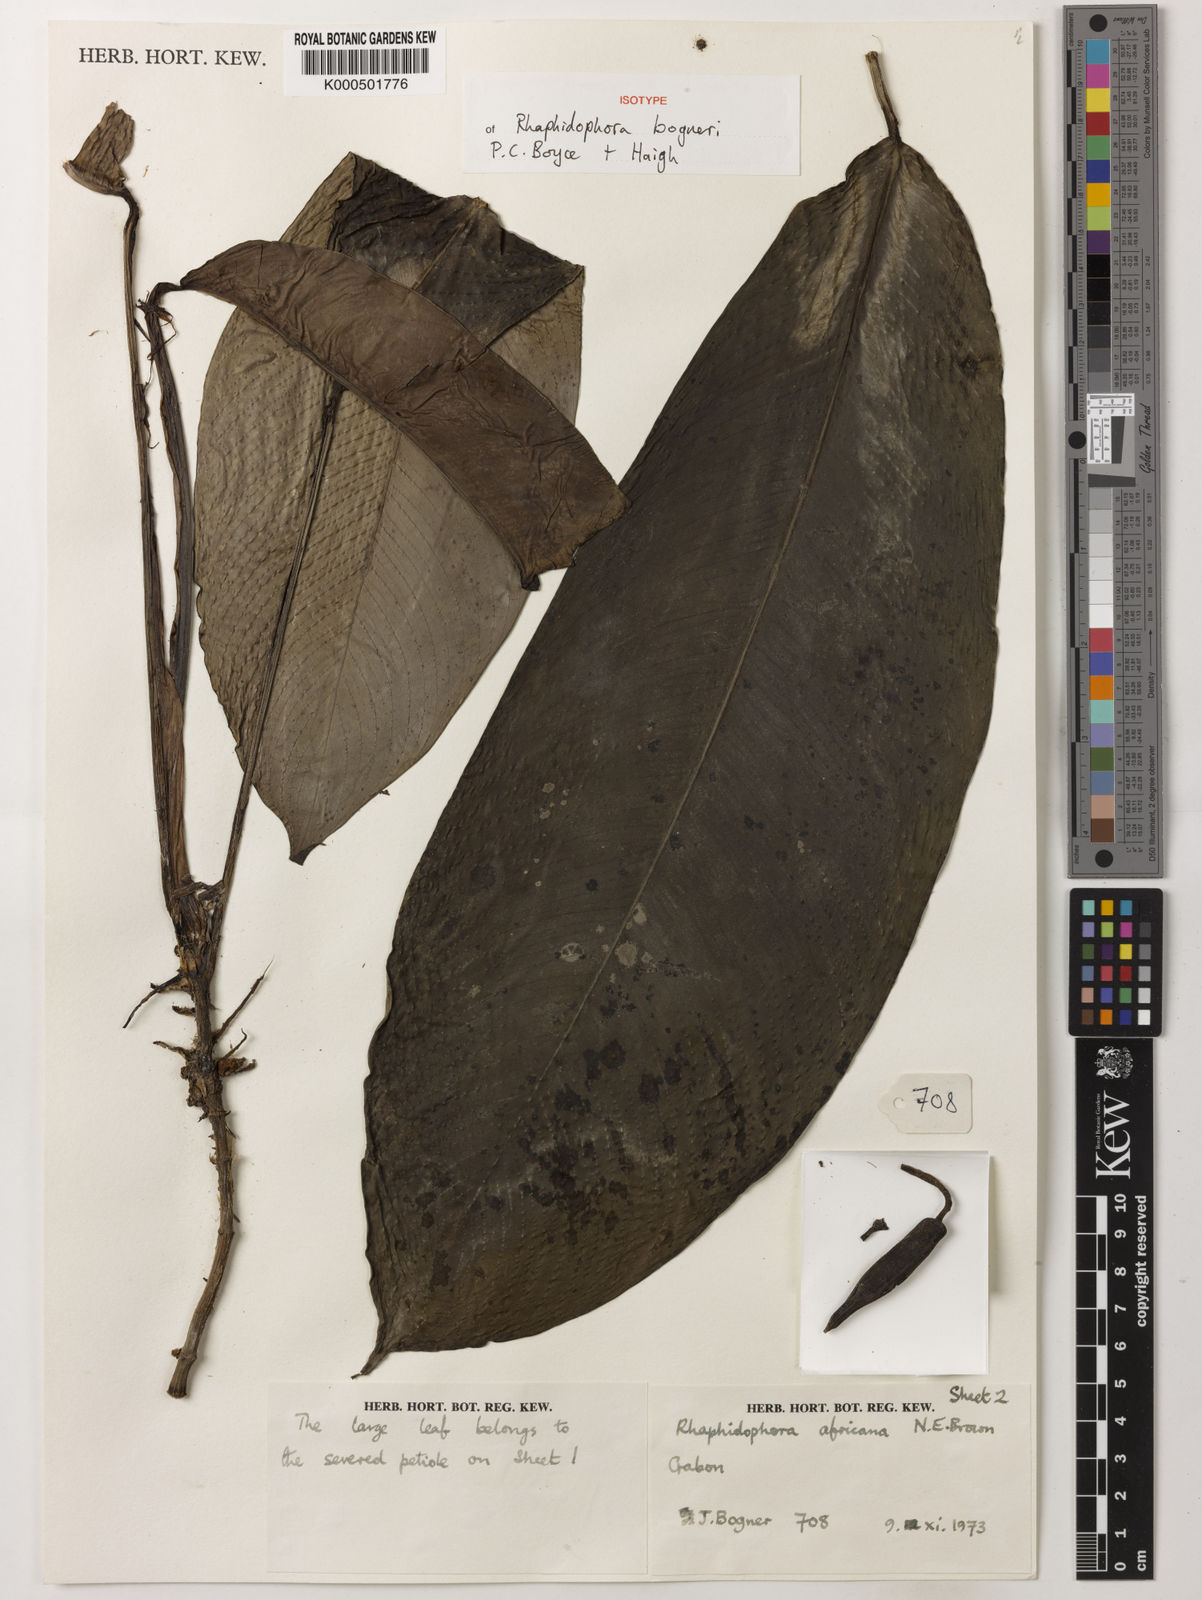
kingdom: Plantae
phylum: Tracheophyta
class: Liliopsida
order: Alismatales
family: Araceae
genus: Rhaphidophora
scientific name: Rhaphidophora bogneri
